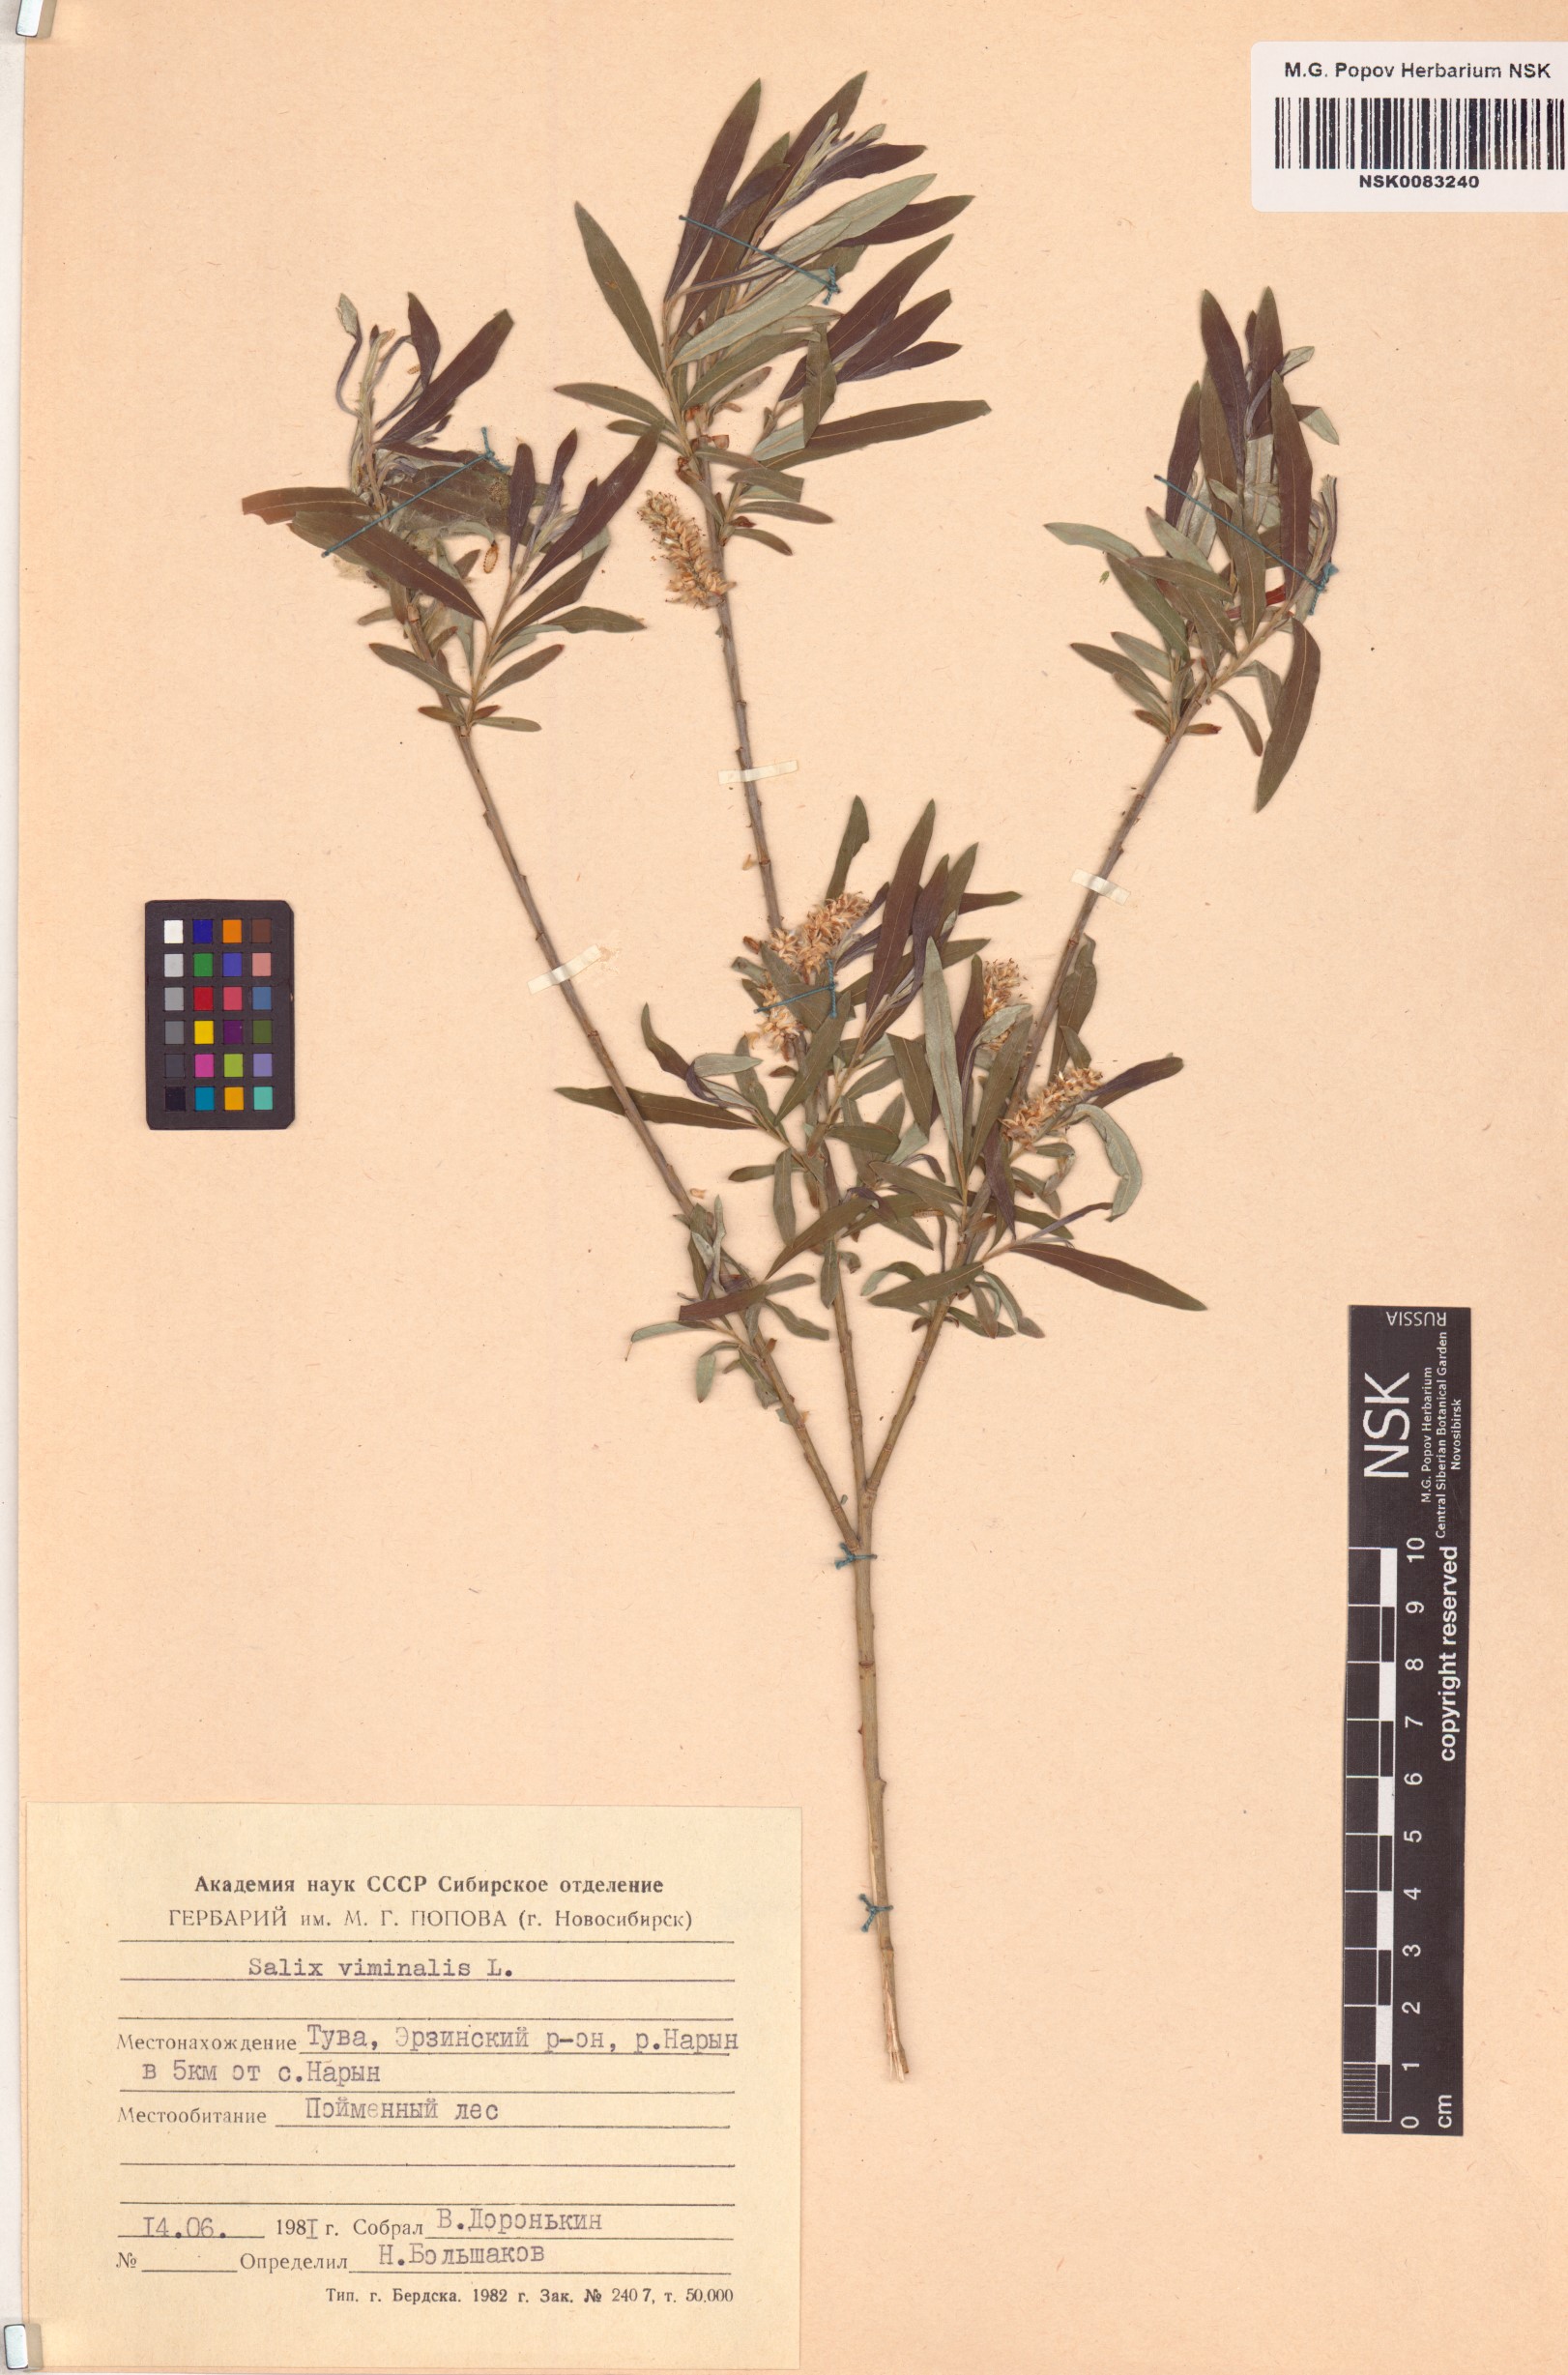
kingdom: Plantae
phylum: Tracheophyta
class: Magnoliopsida
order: Malpighiales
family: Salicaceae
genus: Salix
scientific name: Salix viminalis
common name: Osier
